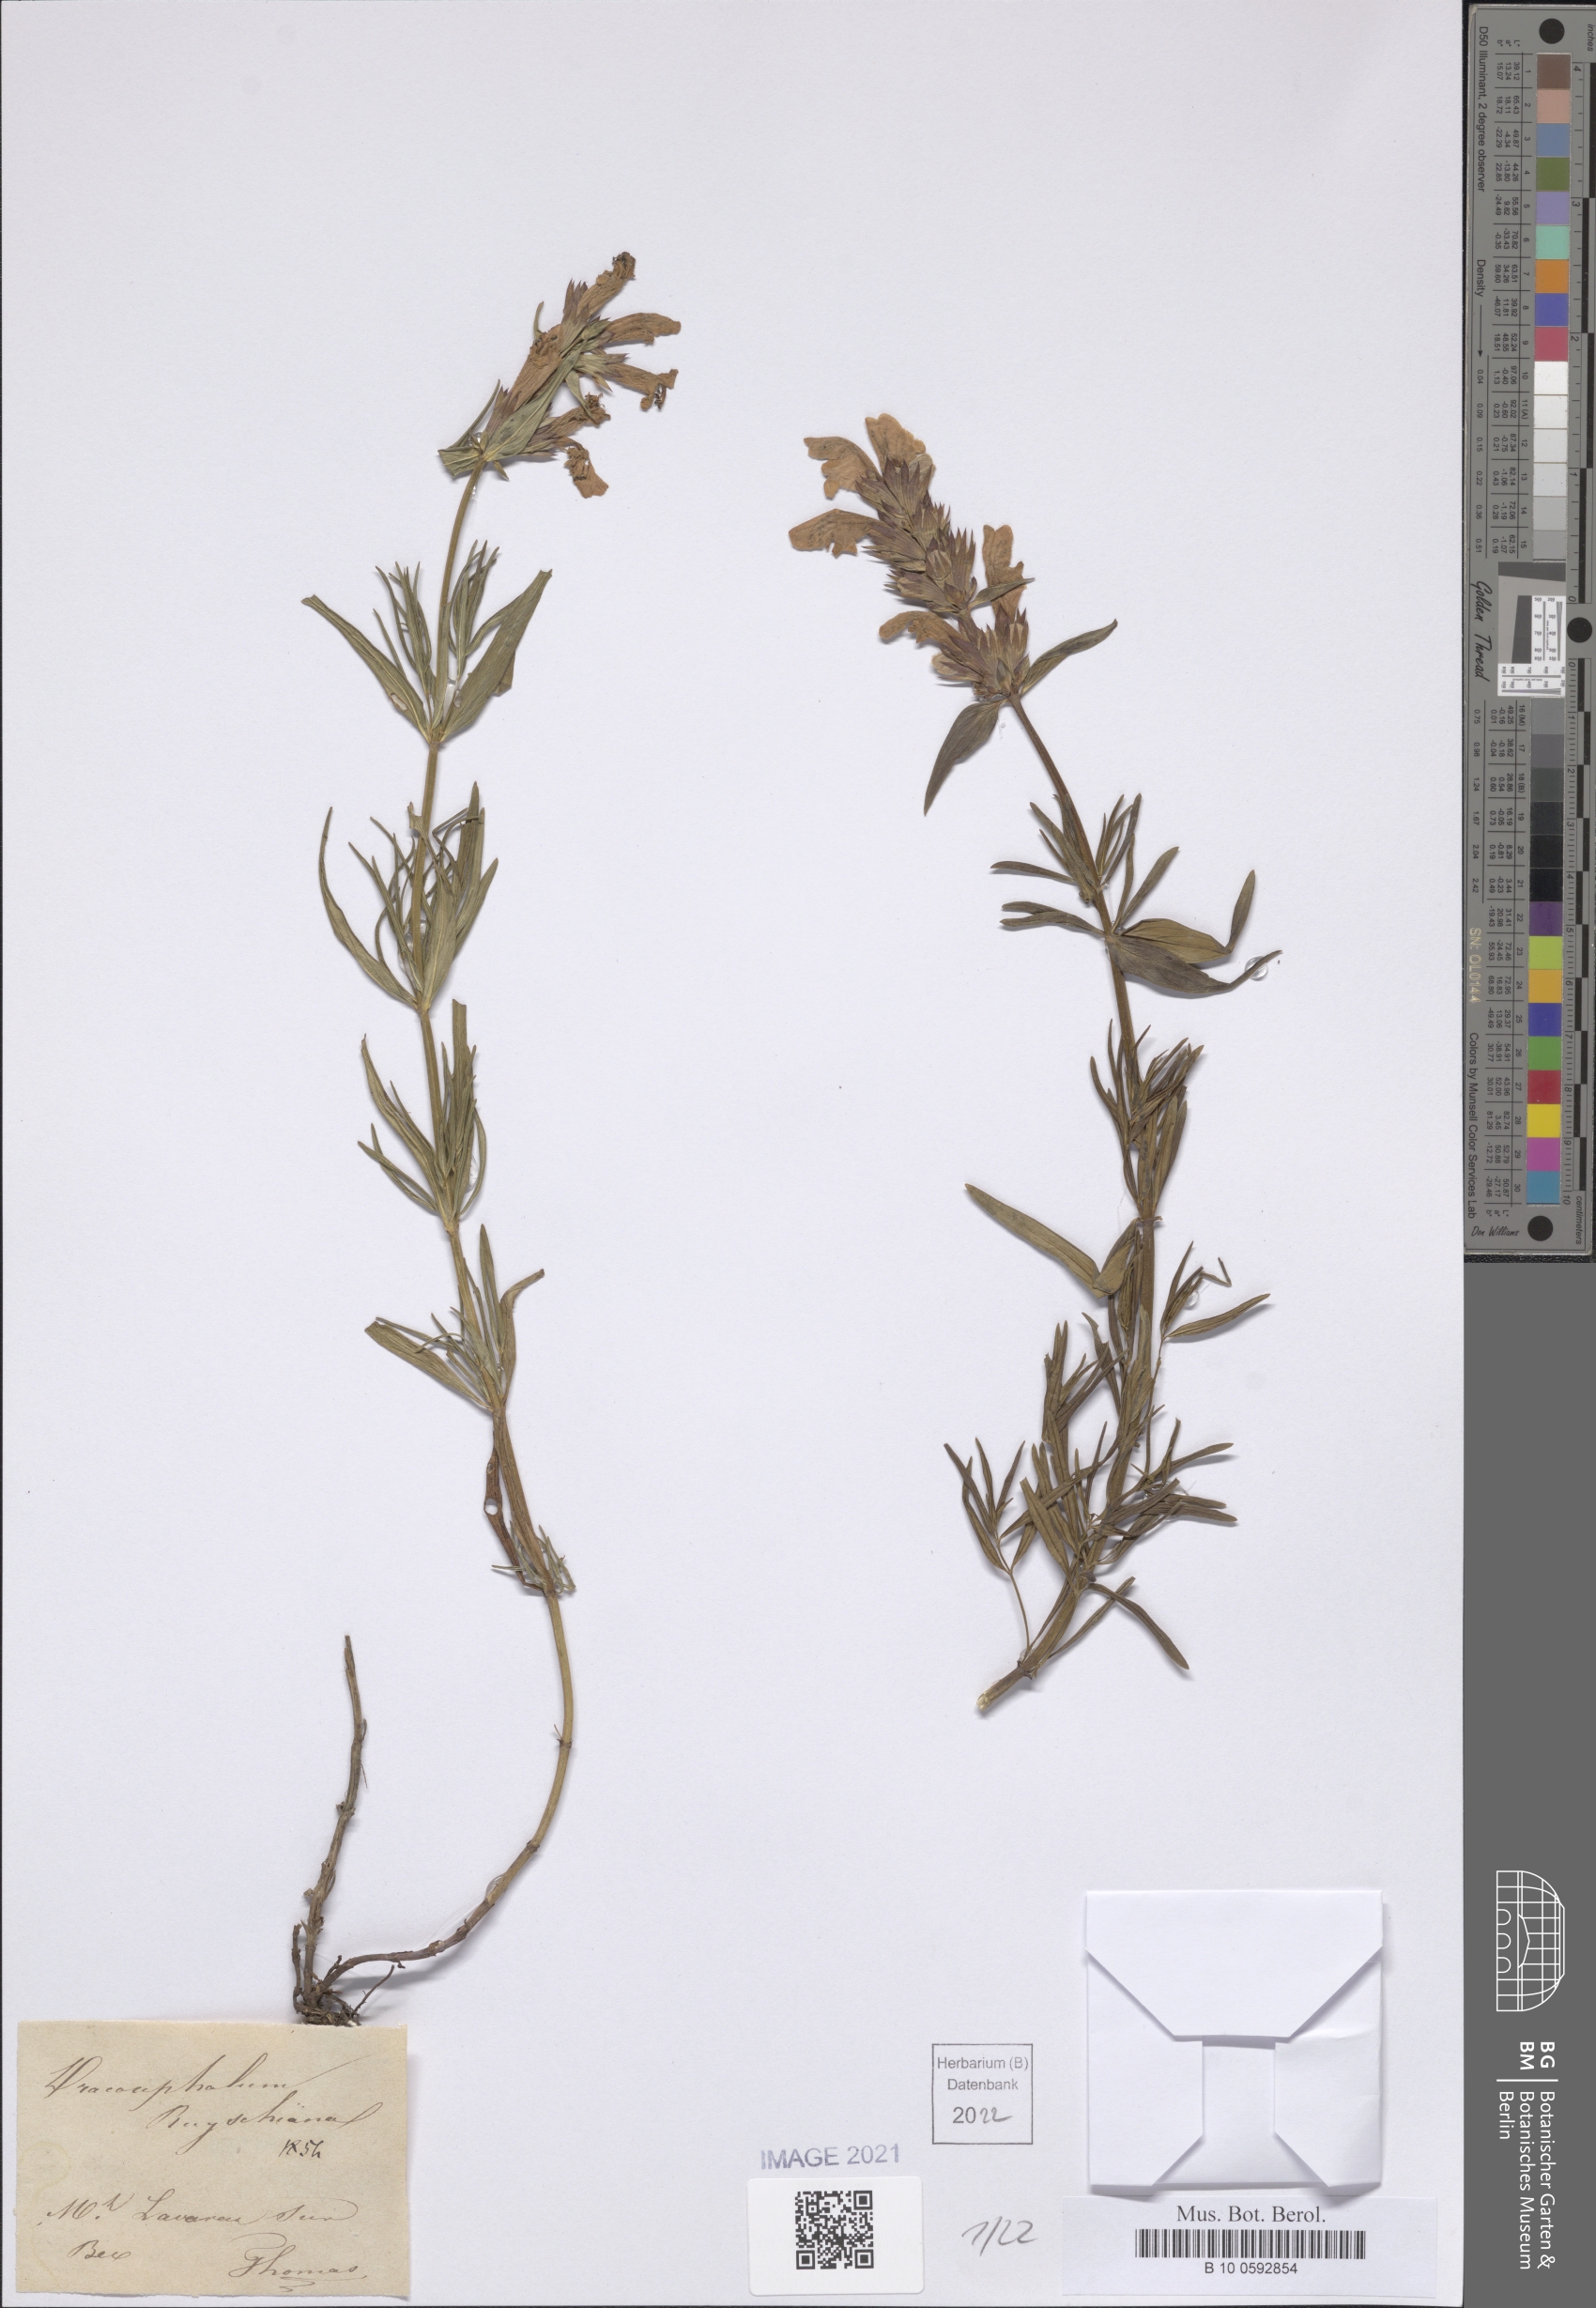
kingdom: Plantae
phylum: Tracheophyta
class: Magnoliopsida
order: Lamiales
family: Lamiaceae
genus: Dracocephalum
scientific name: Dracocephalum ruyschiana
